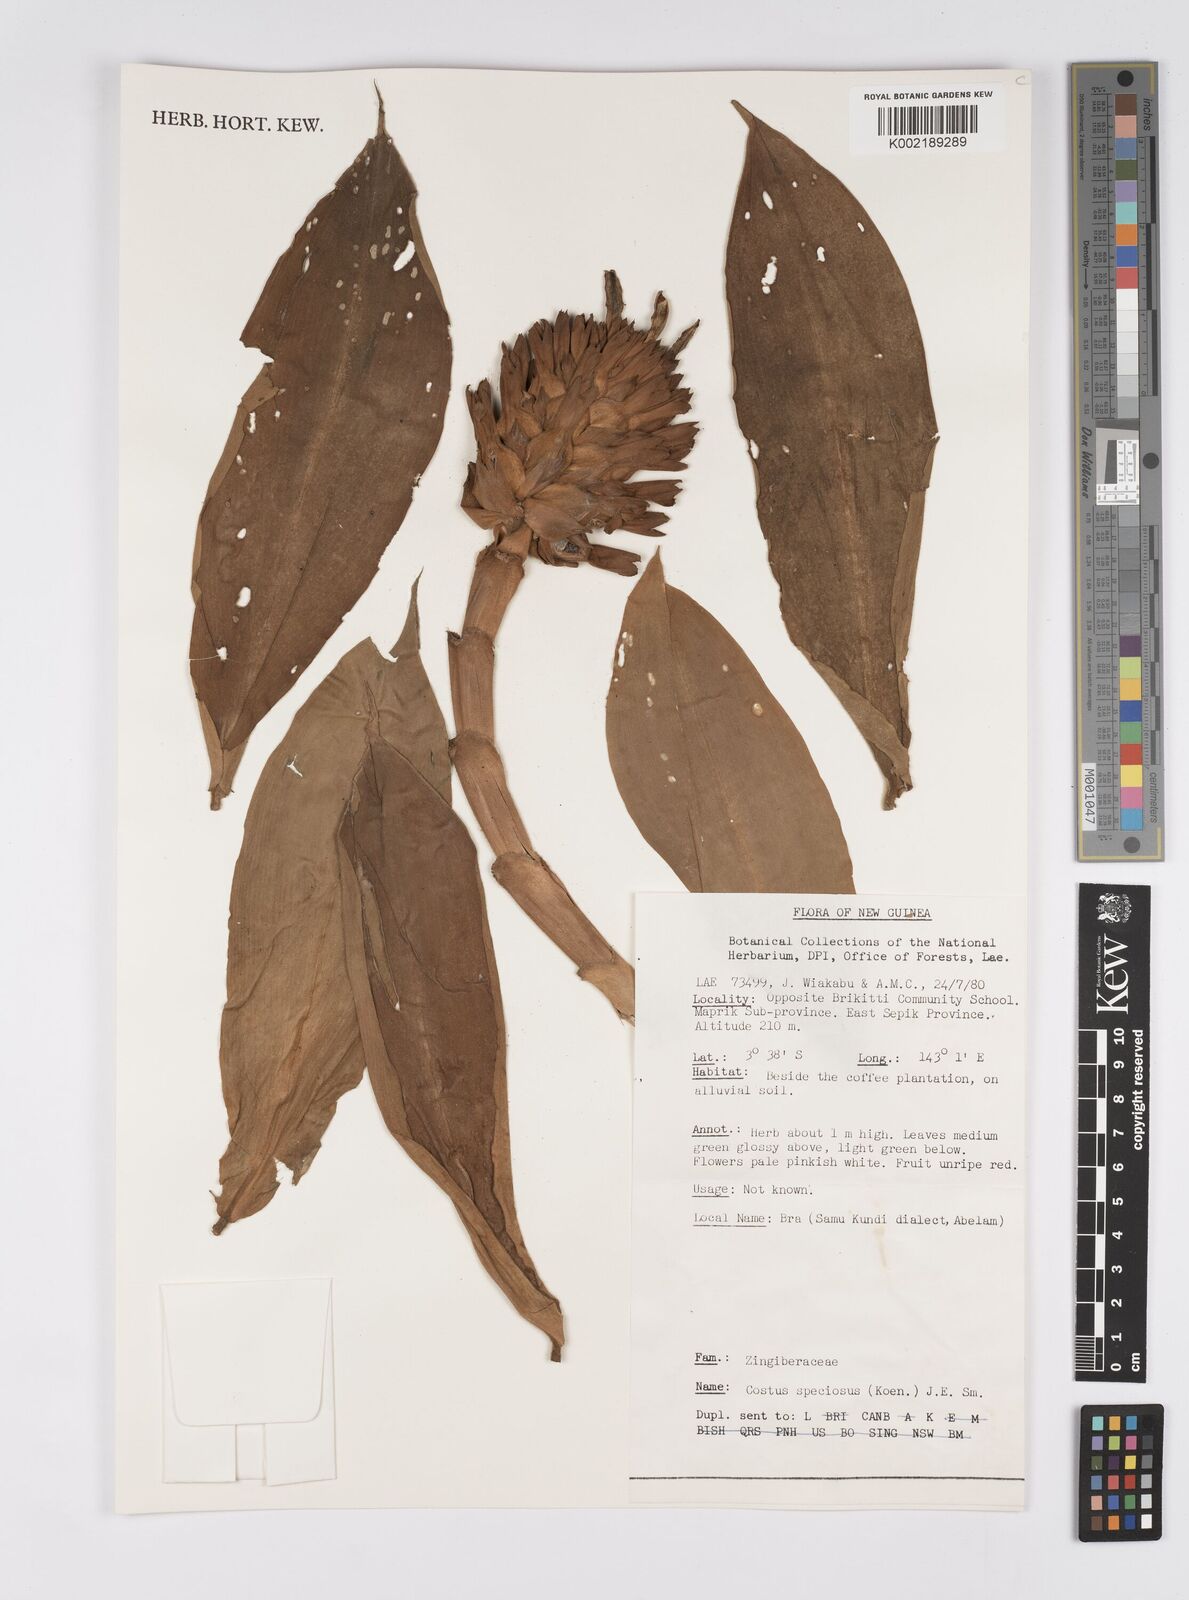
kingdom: Plantae
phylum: Tracheophyta
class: Liliopsida
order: Zingiberales
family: Costaceae
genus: Hellenia
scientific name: Hellenia speciosa
